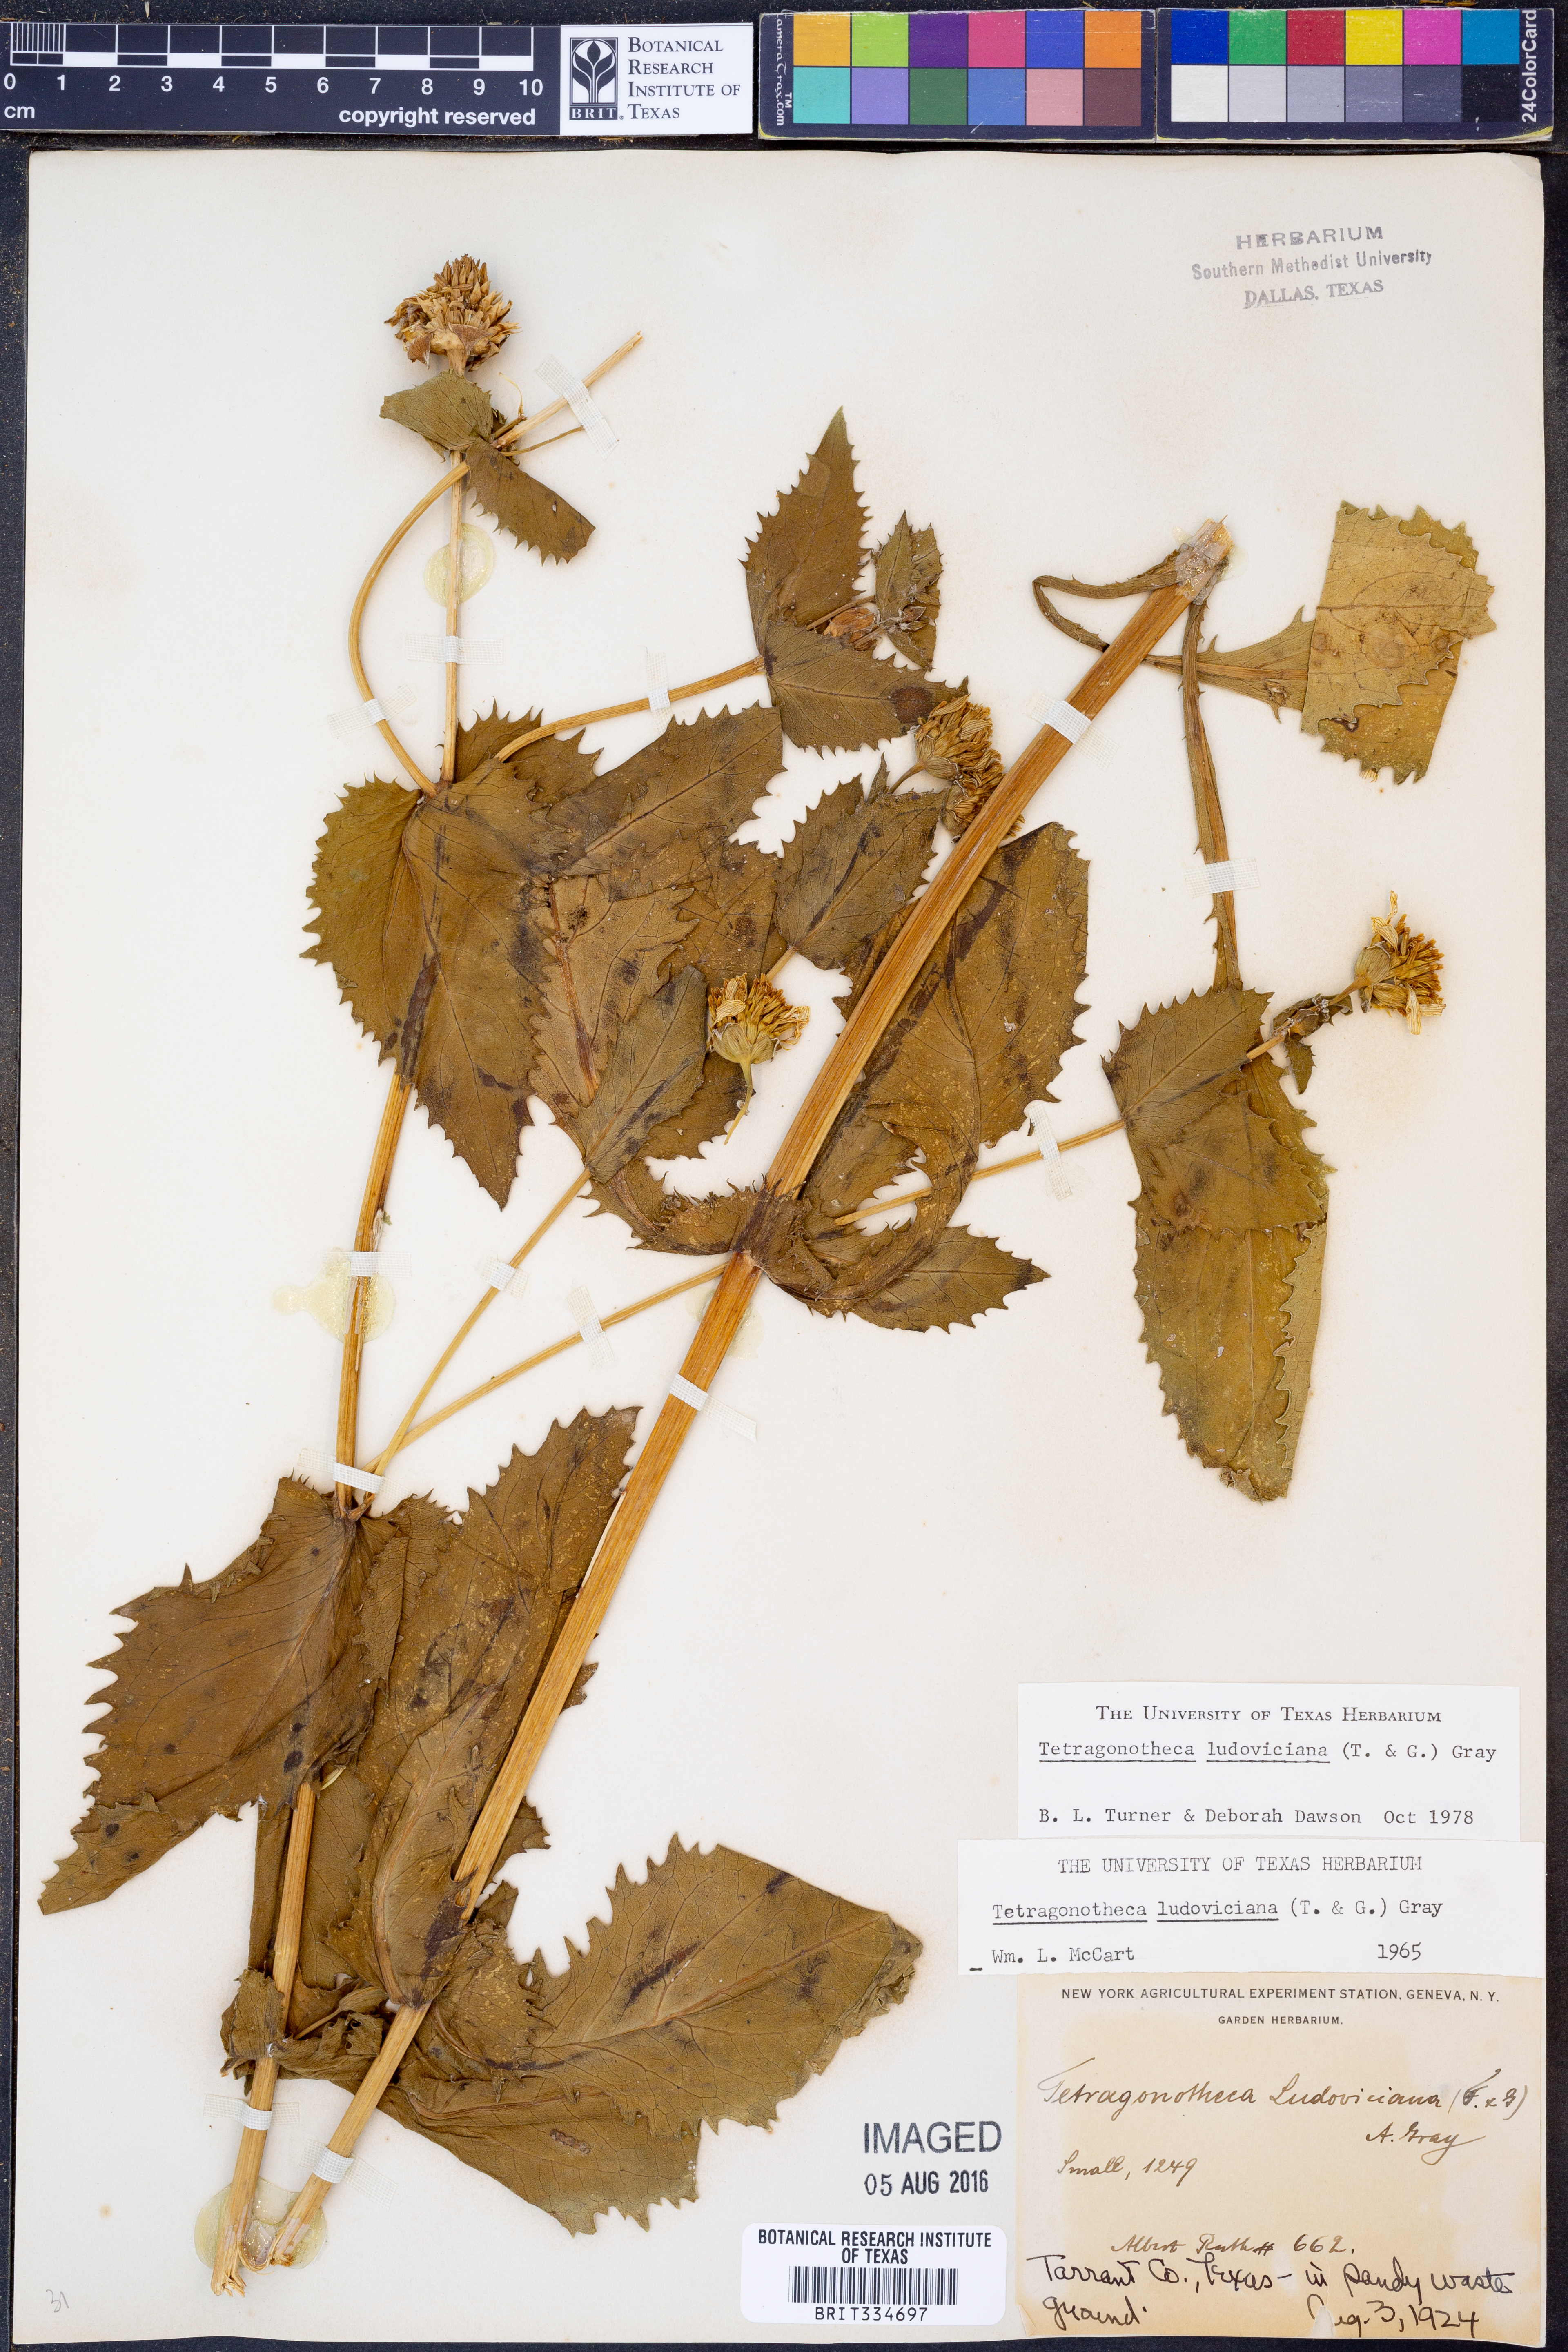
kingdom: Plantae
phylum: Tracheophyta
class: Magnoliopsida
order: Asterales
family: Asteraceae
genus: Tetragonotheca
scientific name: Tetragonotheca ludoviciana
